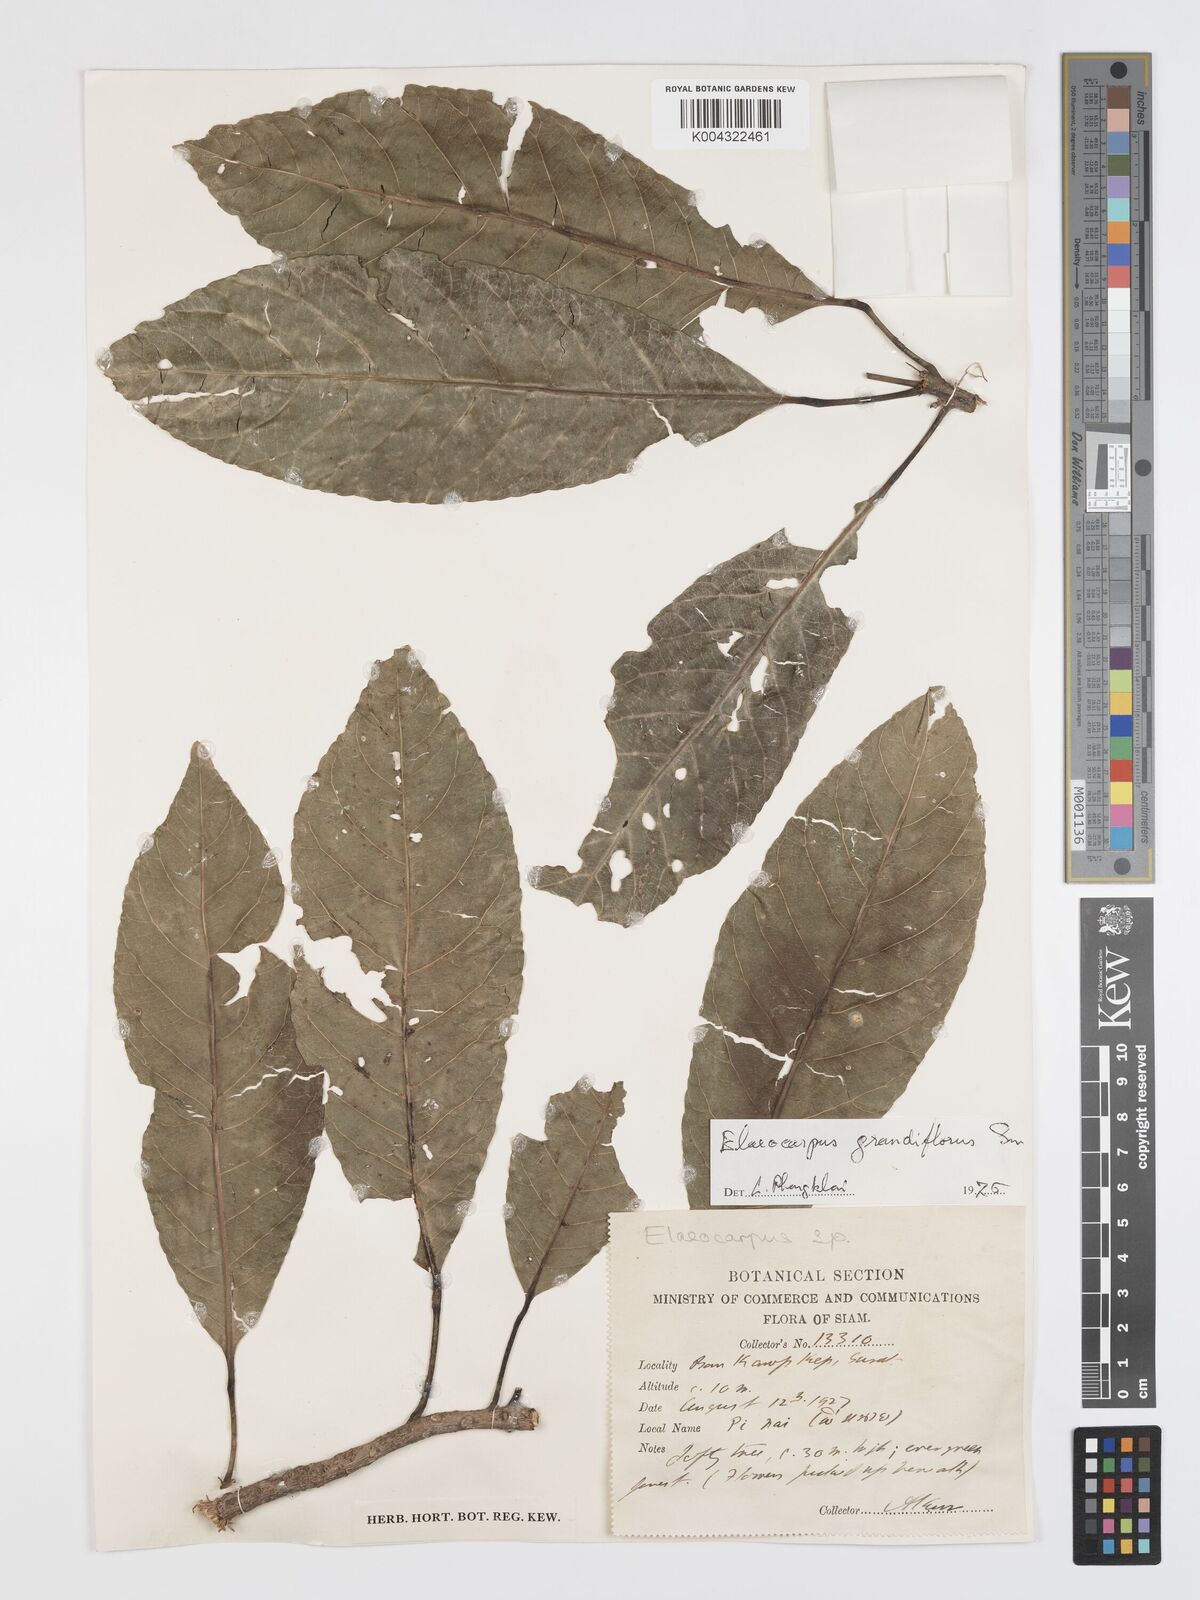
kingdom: Plantae
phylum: Tracheophyta
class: Magnoliopsida
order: Oxalidales
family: Elaeocarpaceae
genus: Elaeocarpus
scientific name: Elaeocarpus grandiflorus
